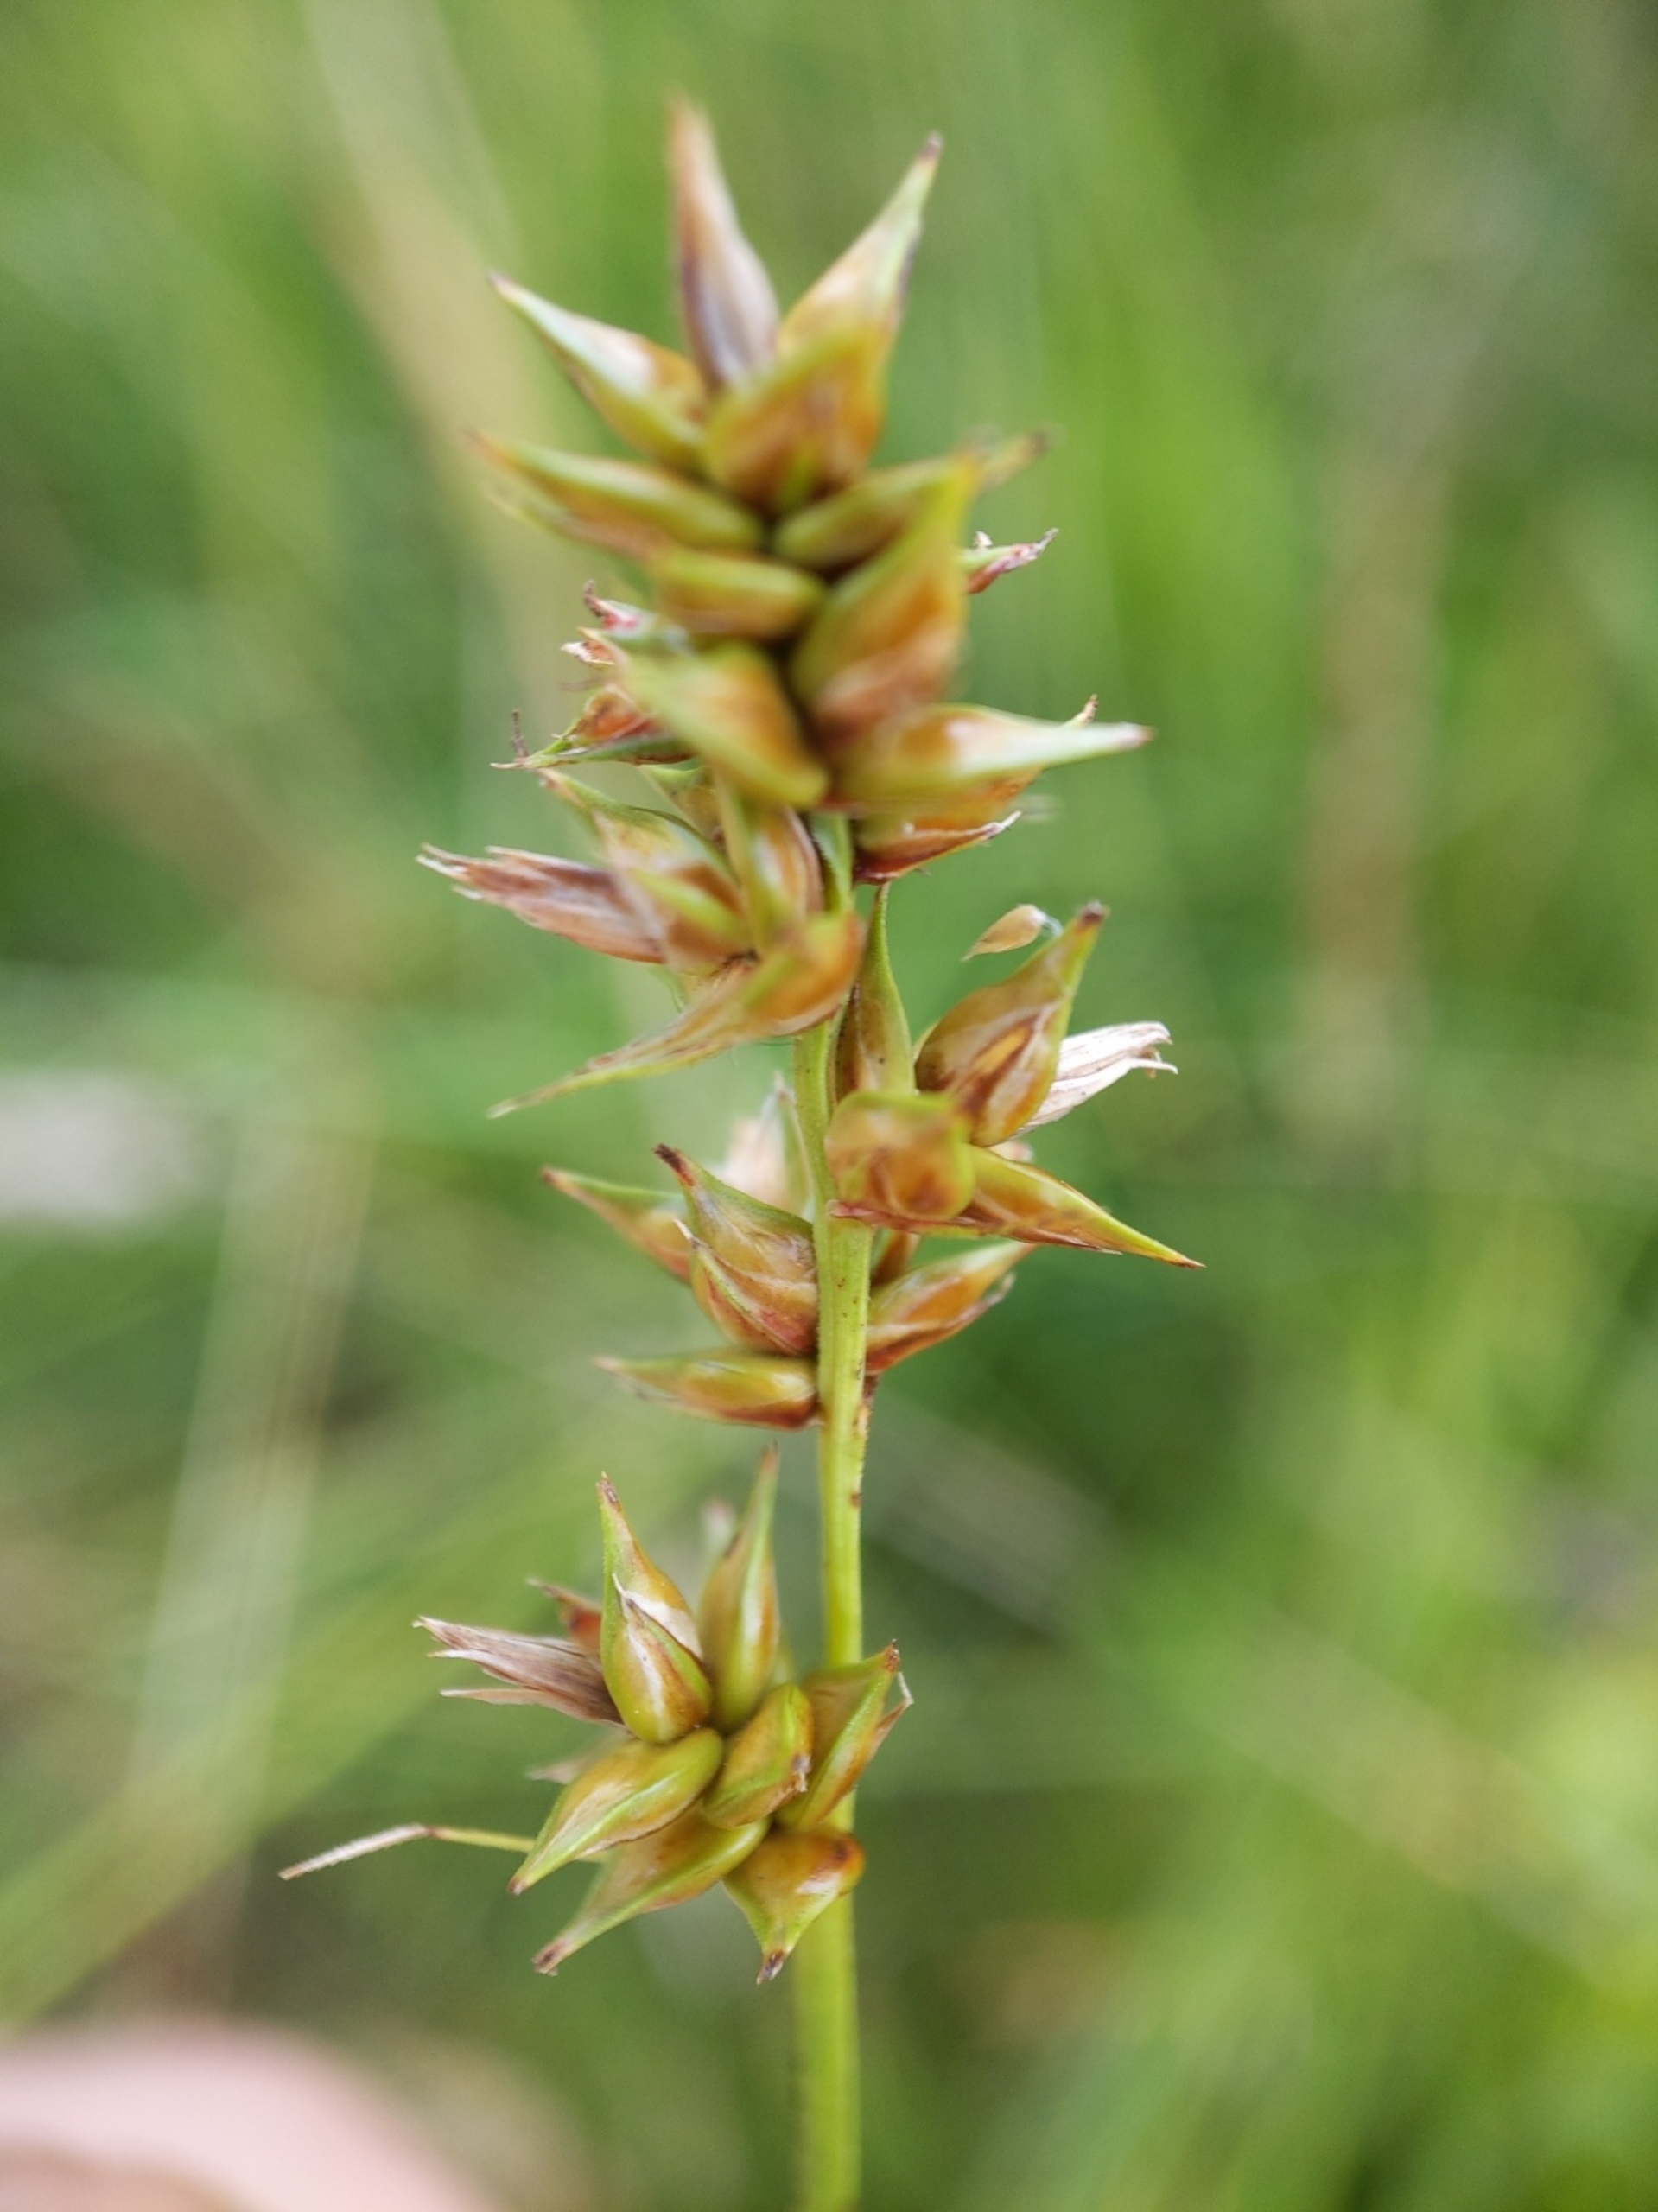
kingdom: Plantae
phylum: Tracheophyta
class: Liliopsida
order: Poales
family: Cyperaceae
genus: Carex
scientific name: Carex spicata
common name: Spidskapslet star
